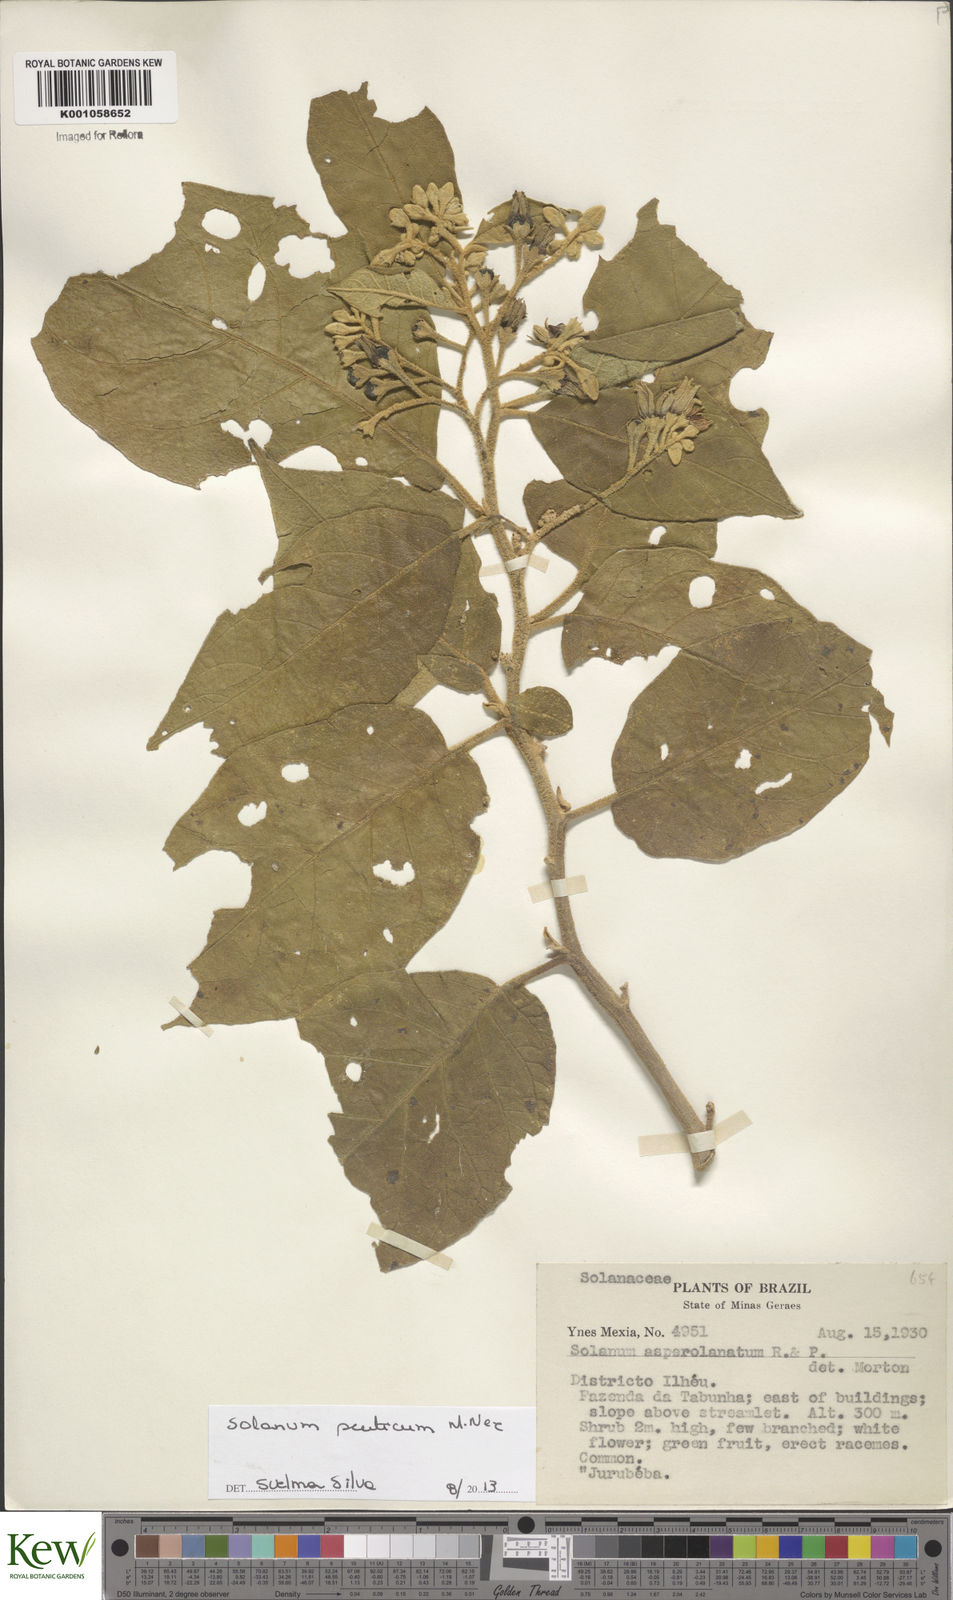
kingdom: Plantae
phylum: Tracheophyta
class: Magnoliopsida
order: Solanales
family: Solanaceae
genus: Solanum
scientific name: Solanum scuticum
